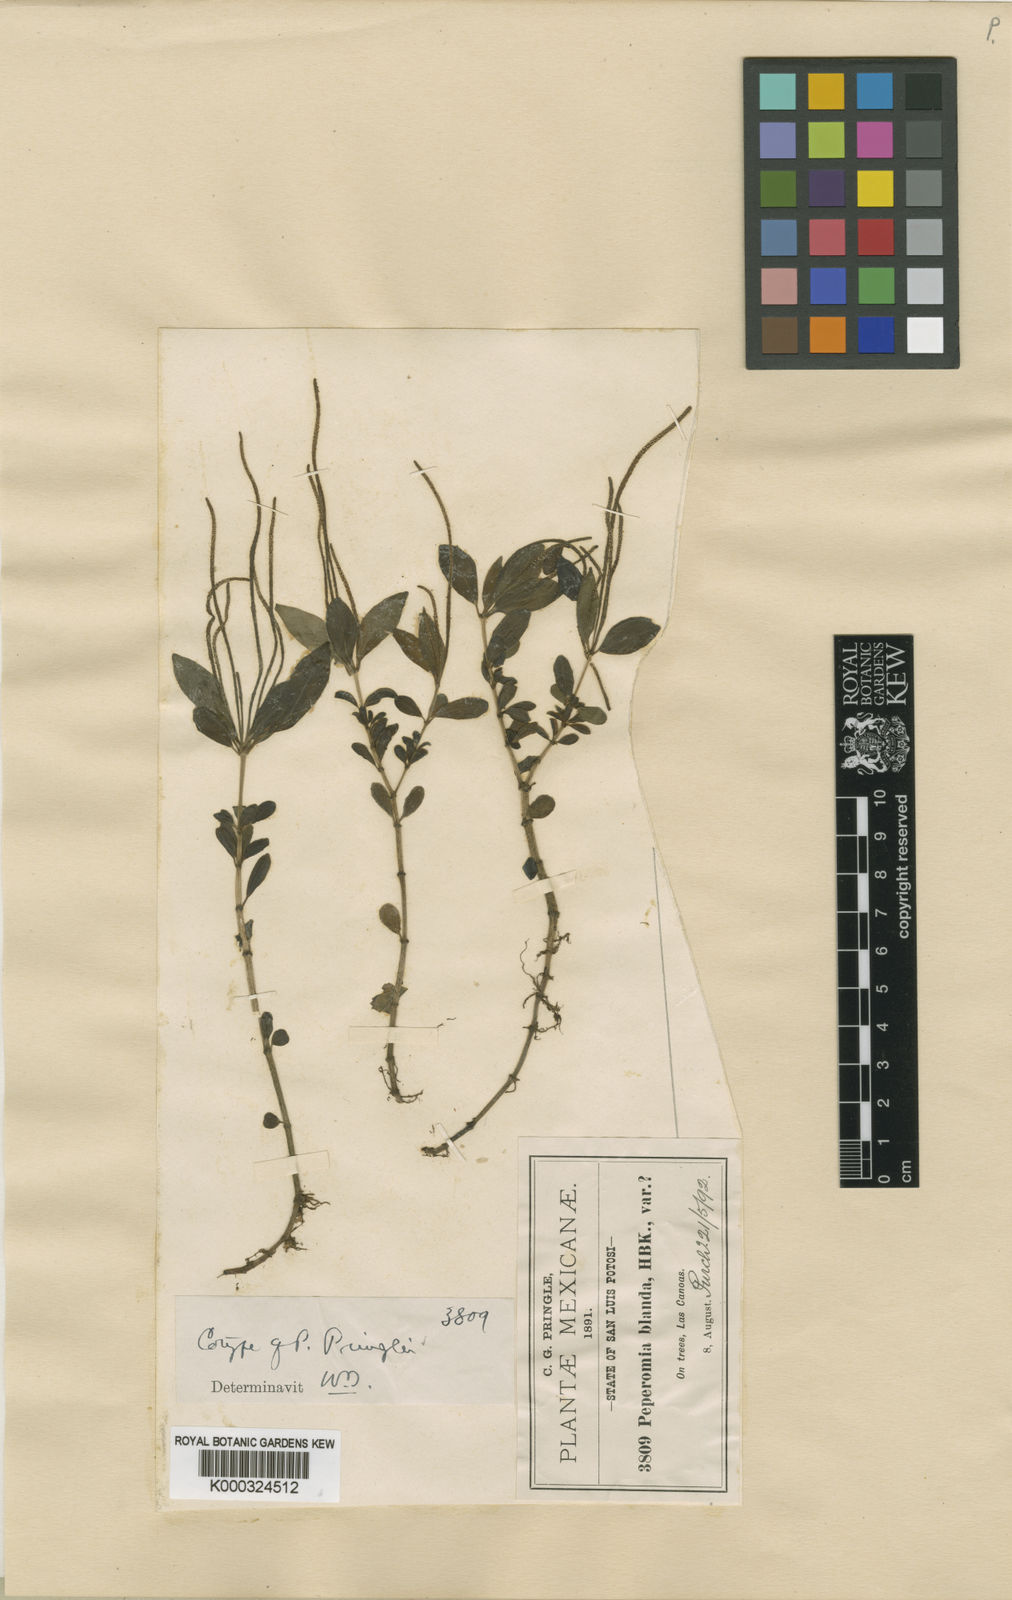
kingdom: Plantae
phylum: Tracheophyta
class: Magnoliopsida
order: Piperales
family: Piperaceae
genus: Peperomia
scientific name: Peperomia blanda
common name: Arid-land peperomia
